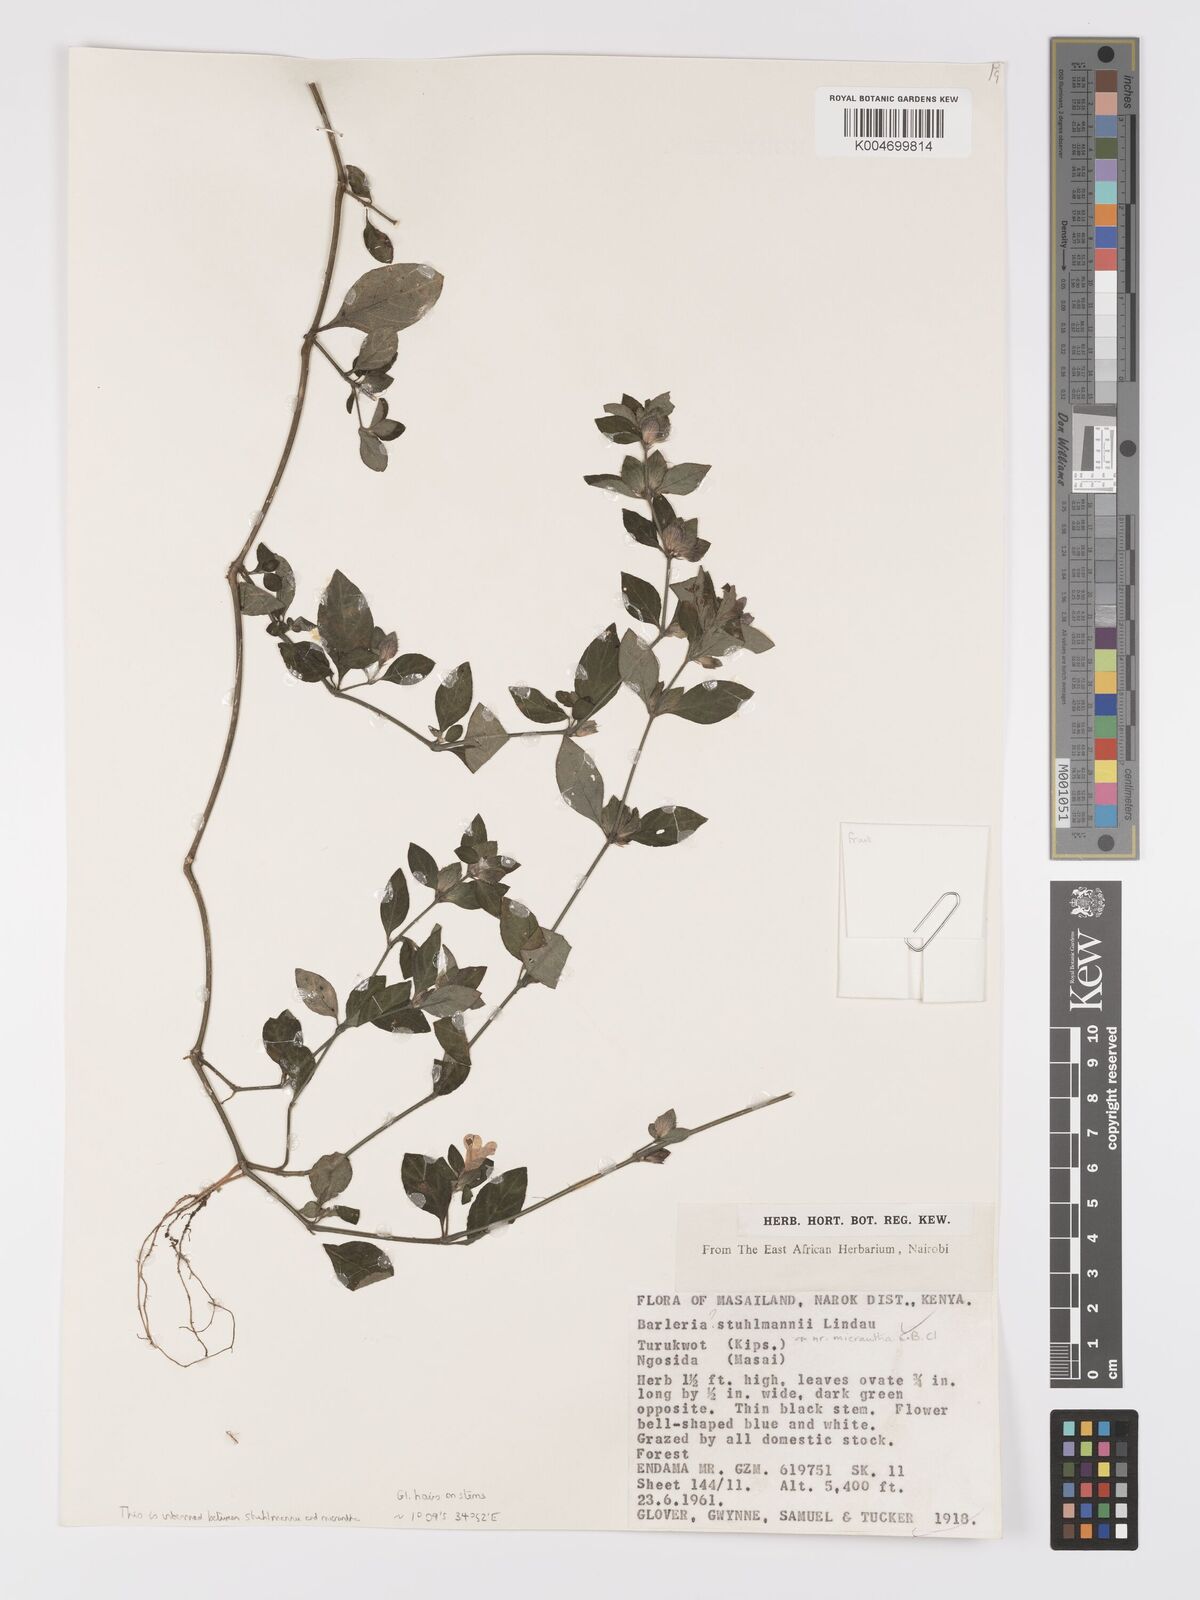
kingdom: Plantae
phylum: Tracheophyta
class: Magnoliopsida
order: Lamiales
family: Acanthaceae
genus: Barleria
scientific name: Barleria ventricosa
